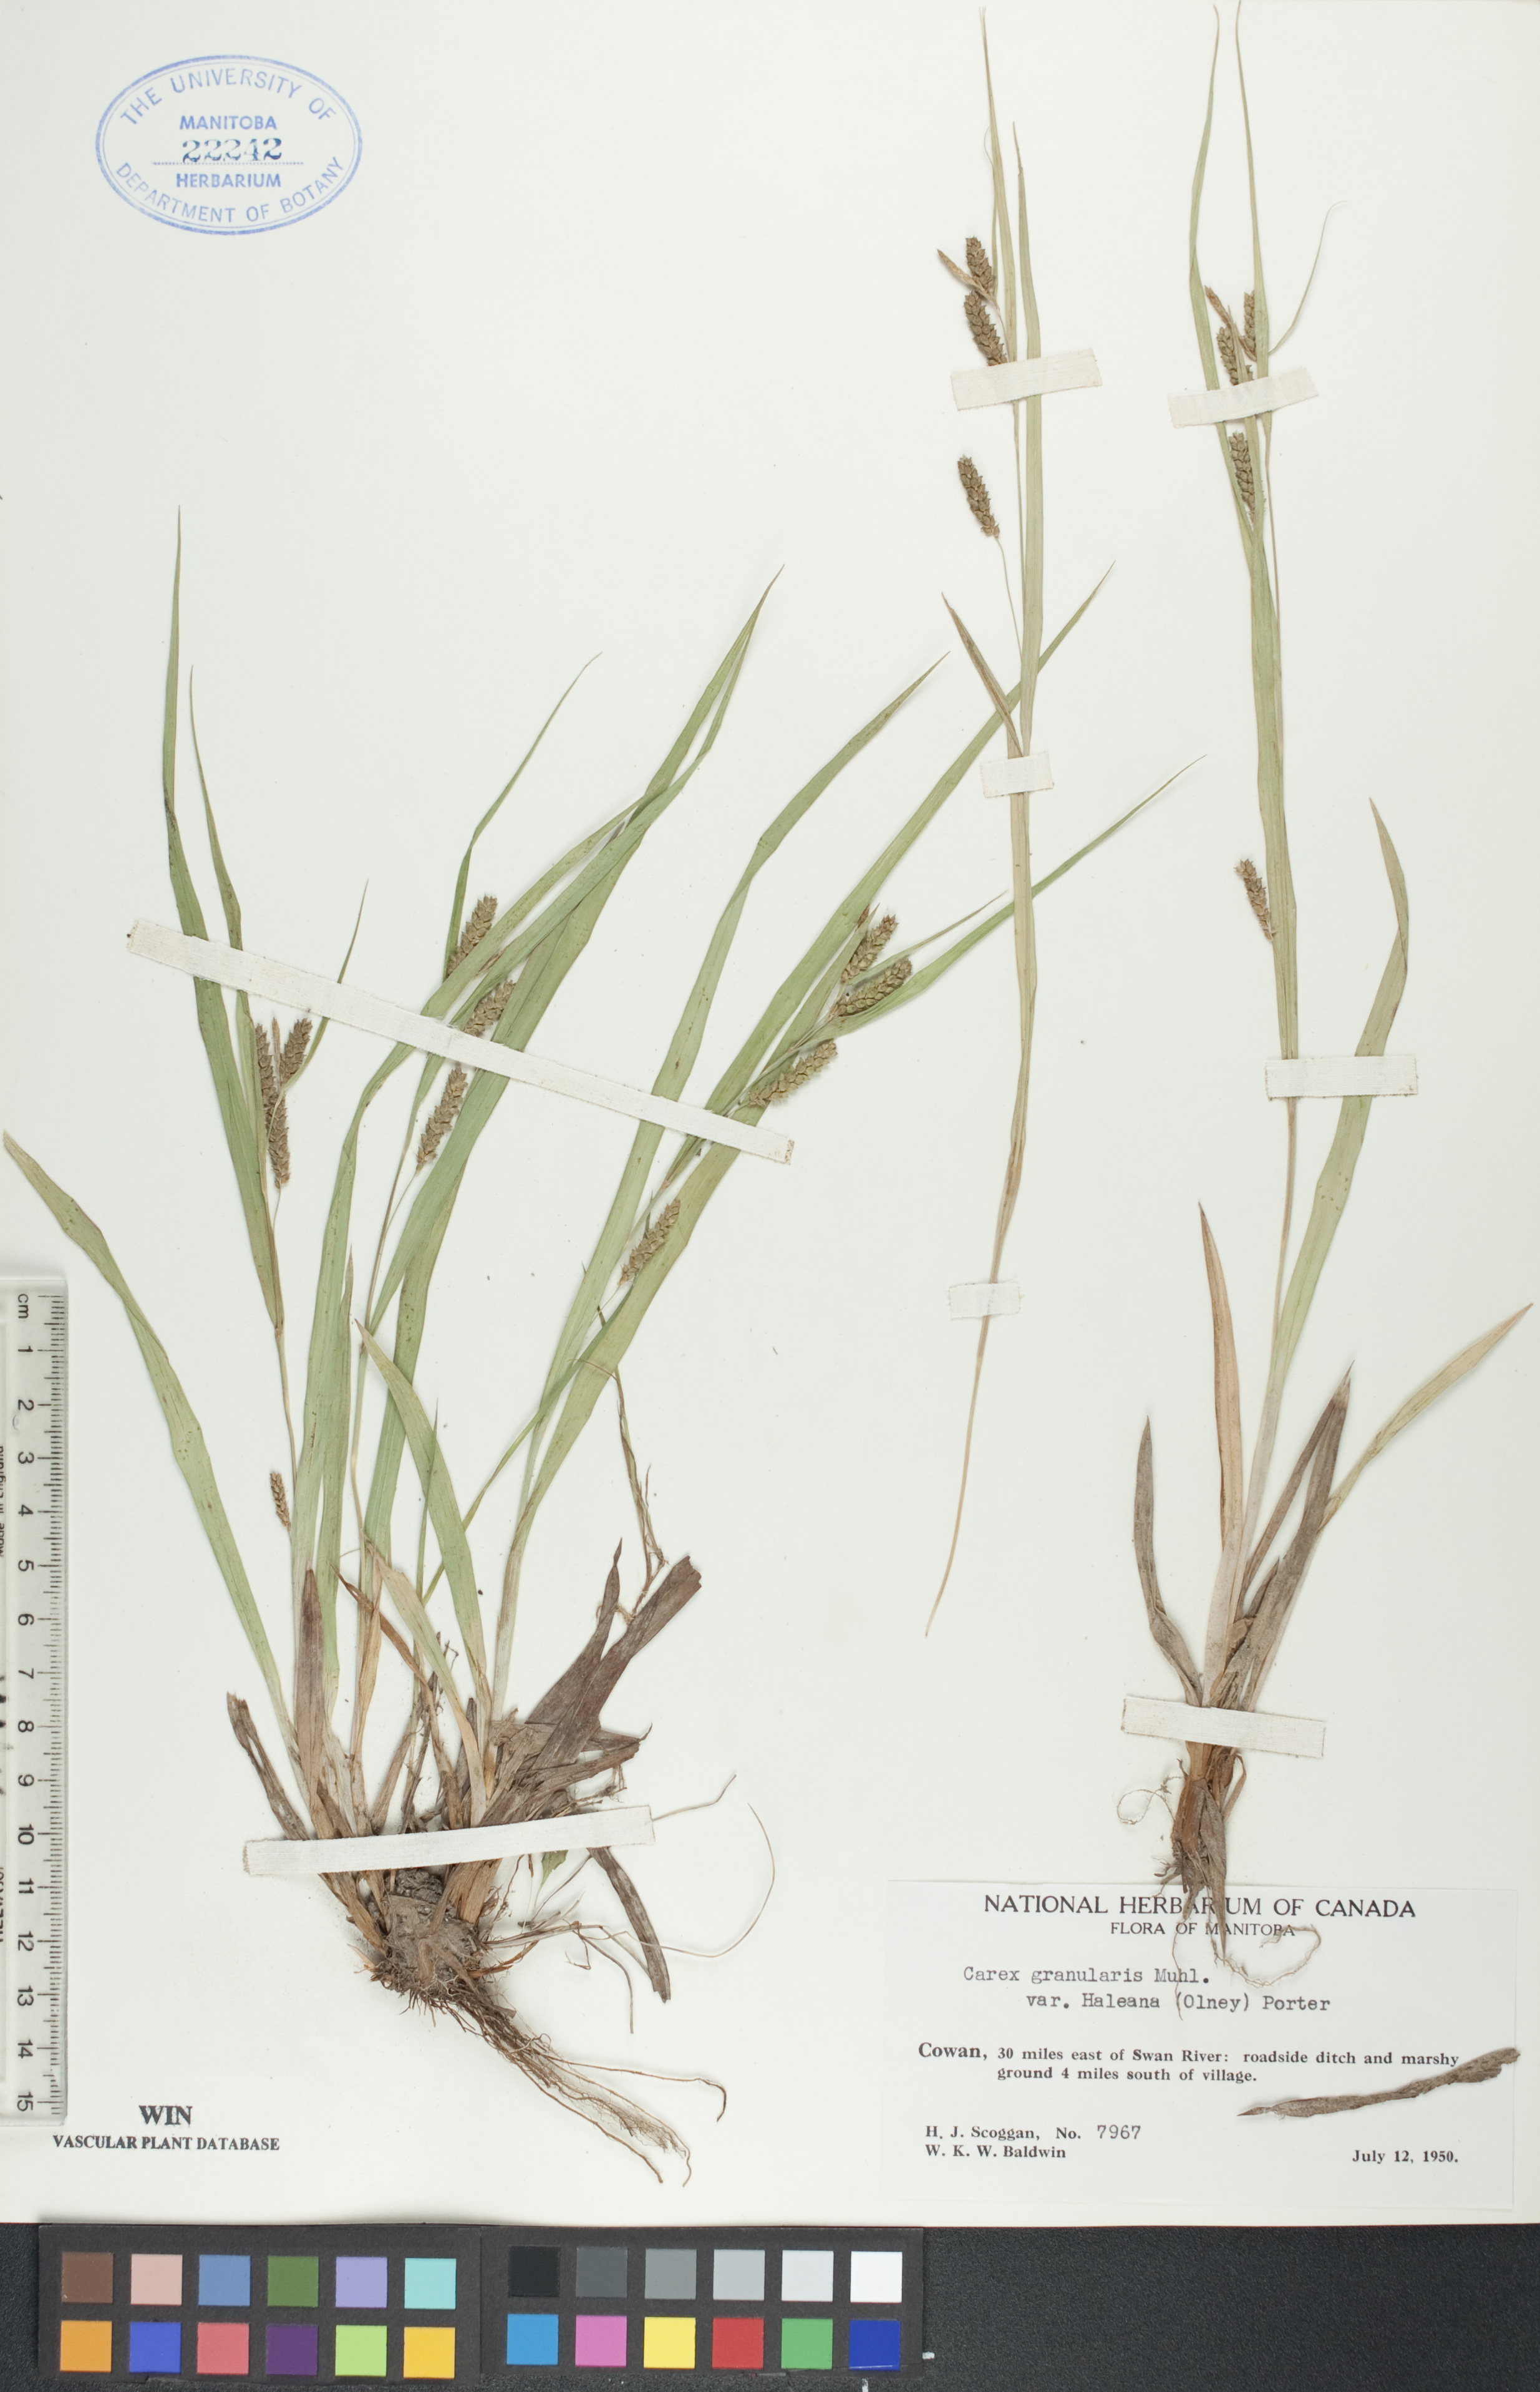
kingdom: Plantae
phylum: Tracheophyta
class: Liliopsida
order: Poales
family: Cyperaceae
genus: Carex
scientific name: Carex granularis
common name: Granular sedge
